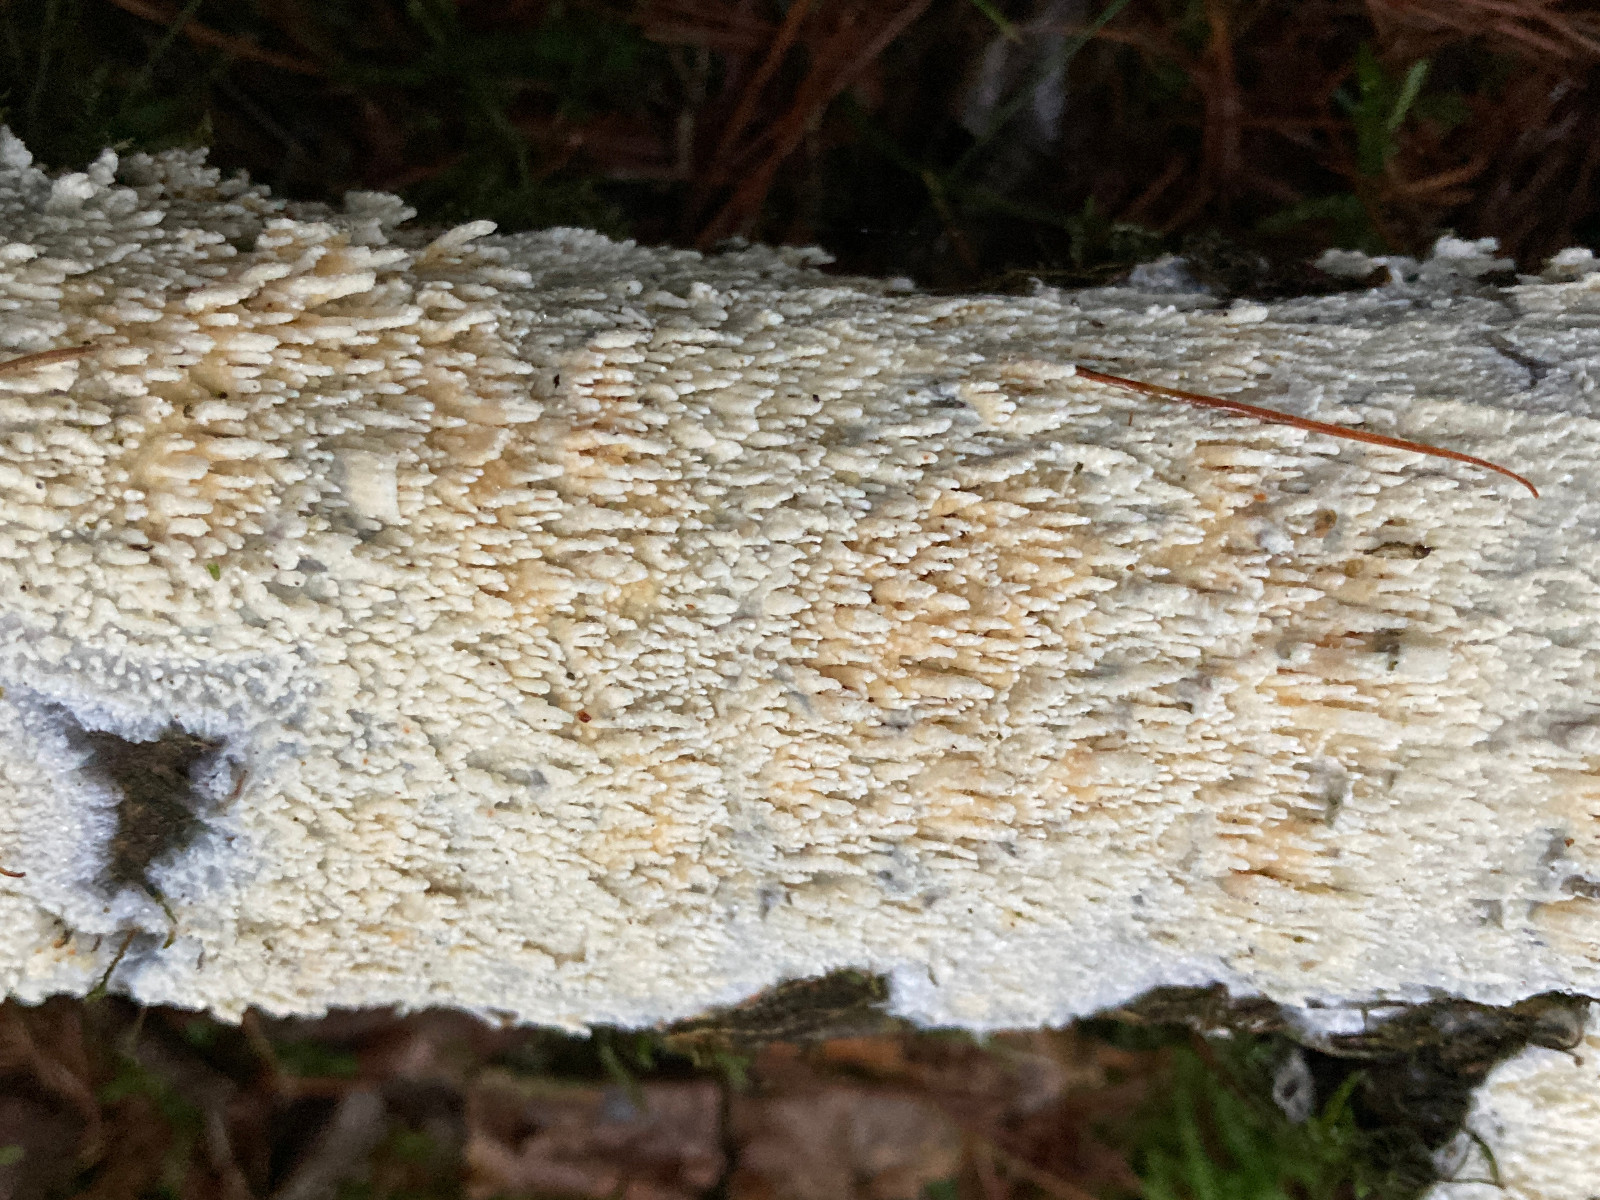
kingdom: Fungi
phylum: Basidiomycota
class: Agaricomycetes
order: Hymenochaetales
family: Schizoporaceae
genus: Xylodon
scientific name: Xylodon radula
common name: grovtandet kalkskind
